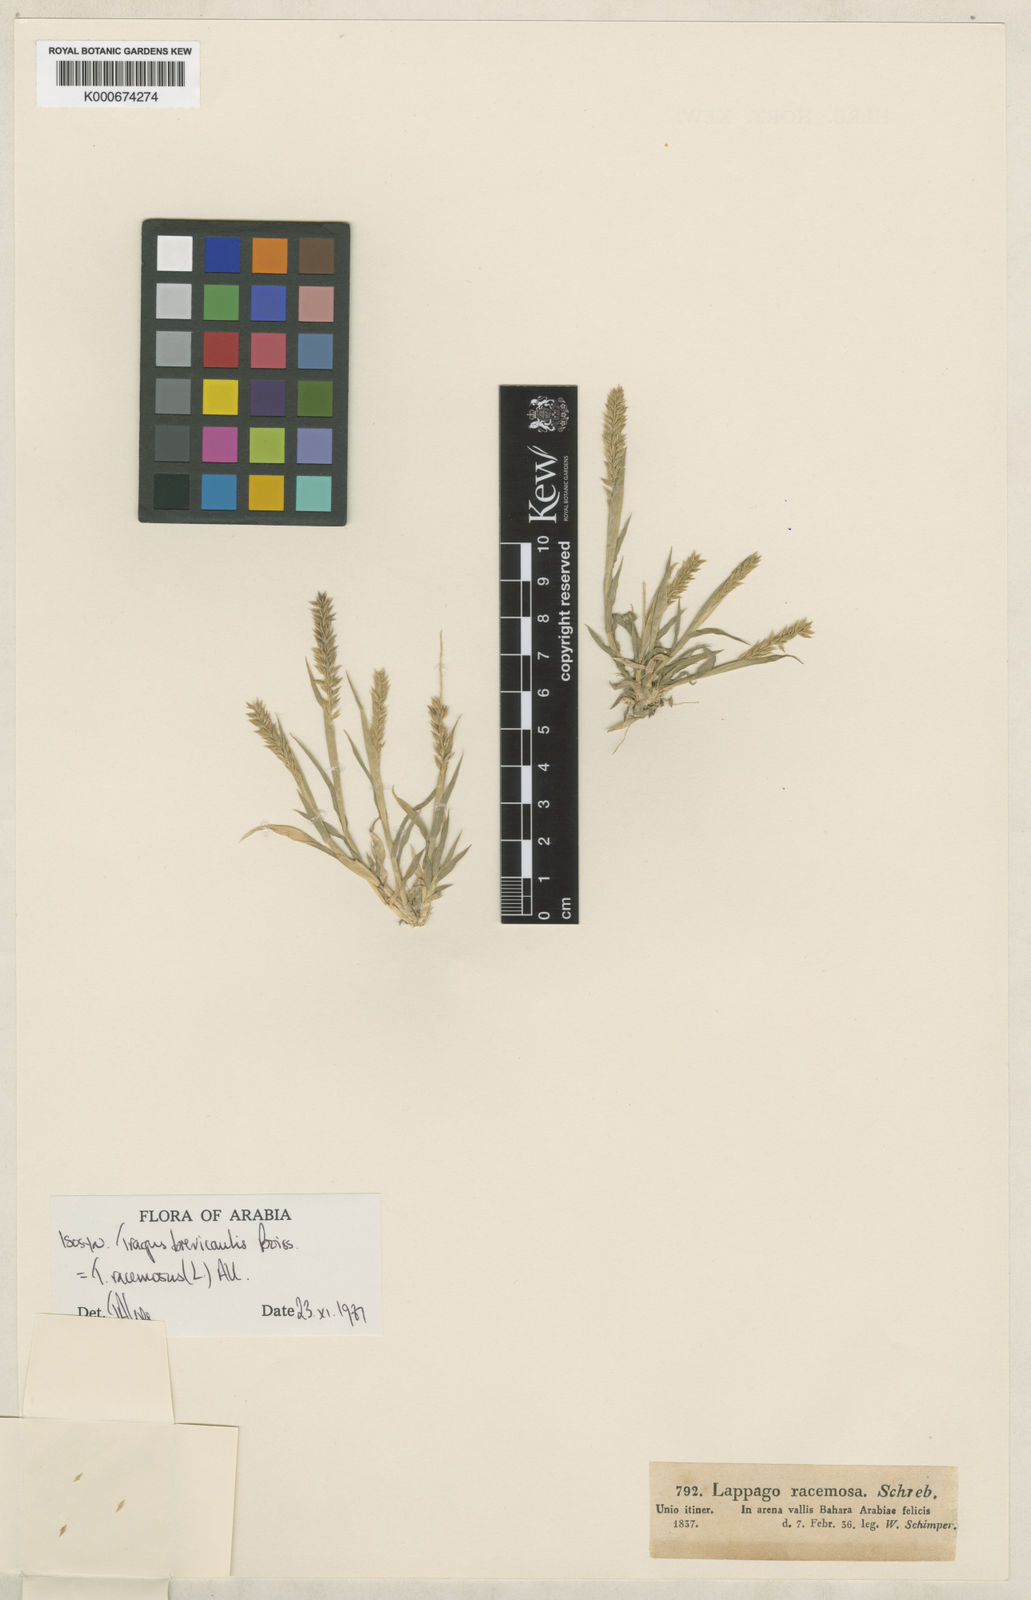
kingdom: Plantae
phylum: Tracheophyta
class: Liliopsida
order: Poales
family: Poaceae
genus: Tragus
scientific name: Tragus racemosus
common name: European bur-grass
